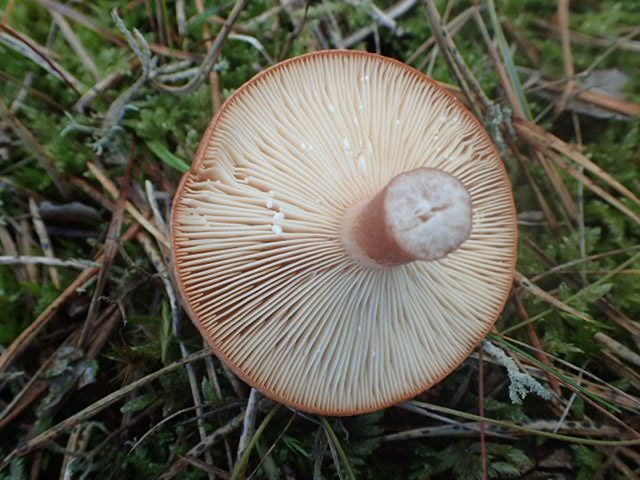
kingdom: Fungi
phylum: Basidiomycota
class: Agaricomycetes
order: Russulales
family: Russulaceae
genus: Lactarius
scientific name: Lactarius rufus
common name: rødbrun mælkehat
